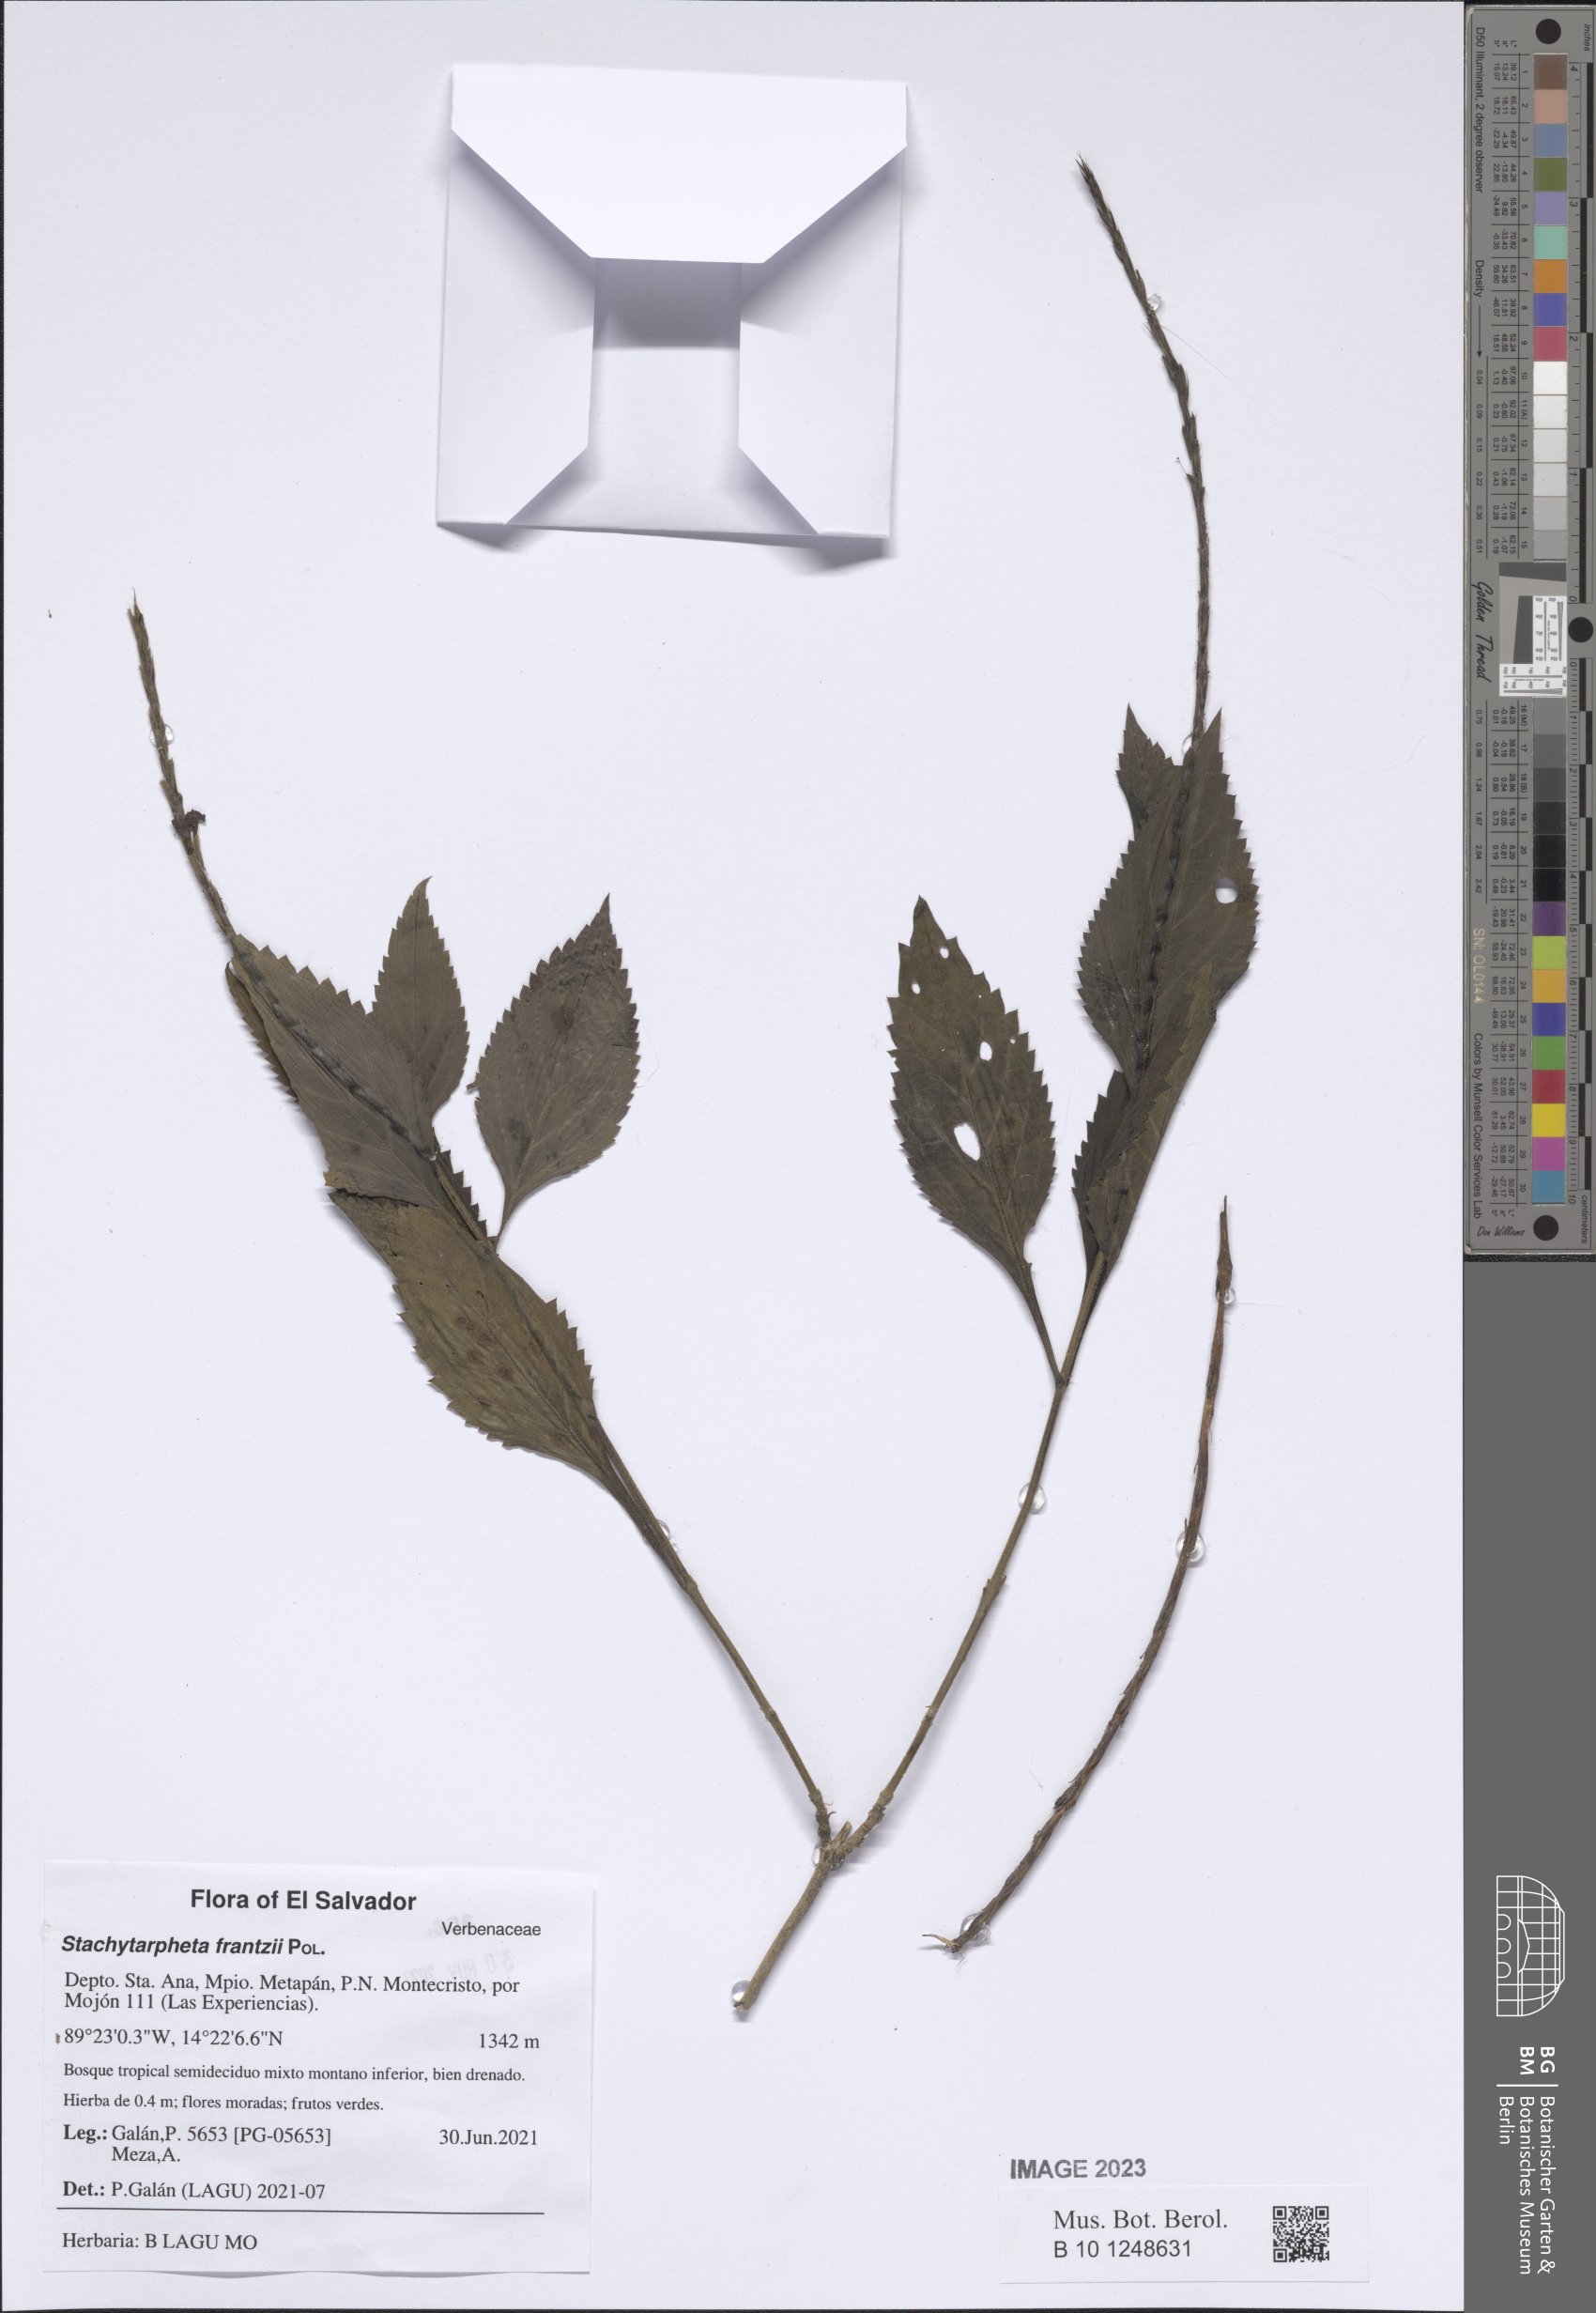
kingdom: Plantae
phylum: Tracheophyta
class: Magnoliopsida
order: Lamiales
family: Verbenaceae
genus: Stachytarpheta
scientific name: Stachytarpheta frantzii
